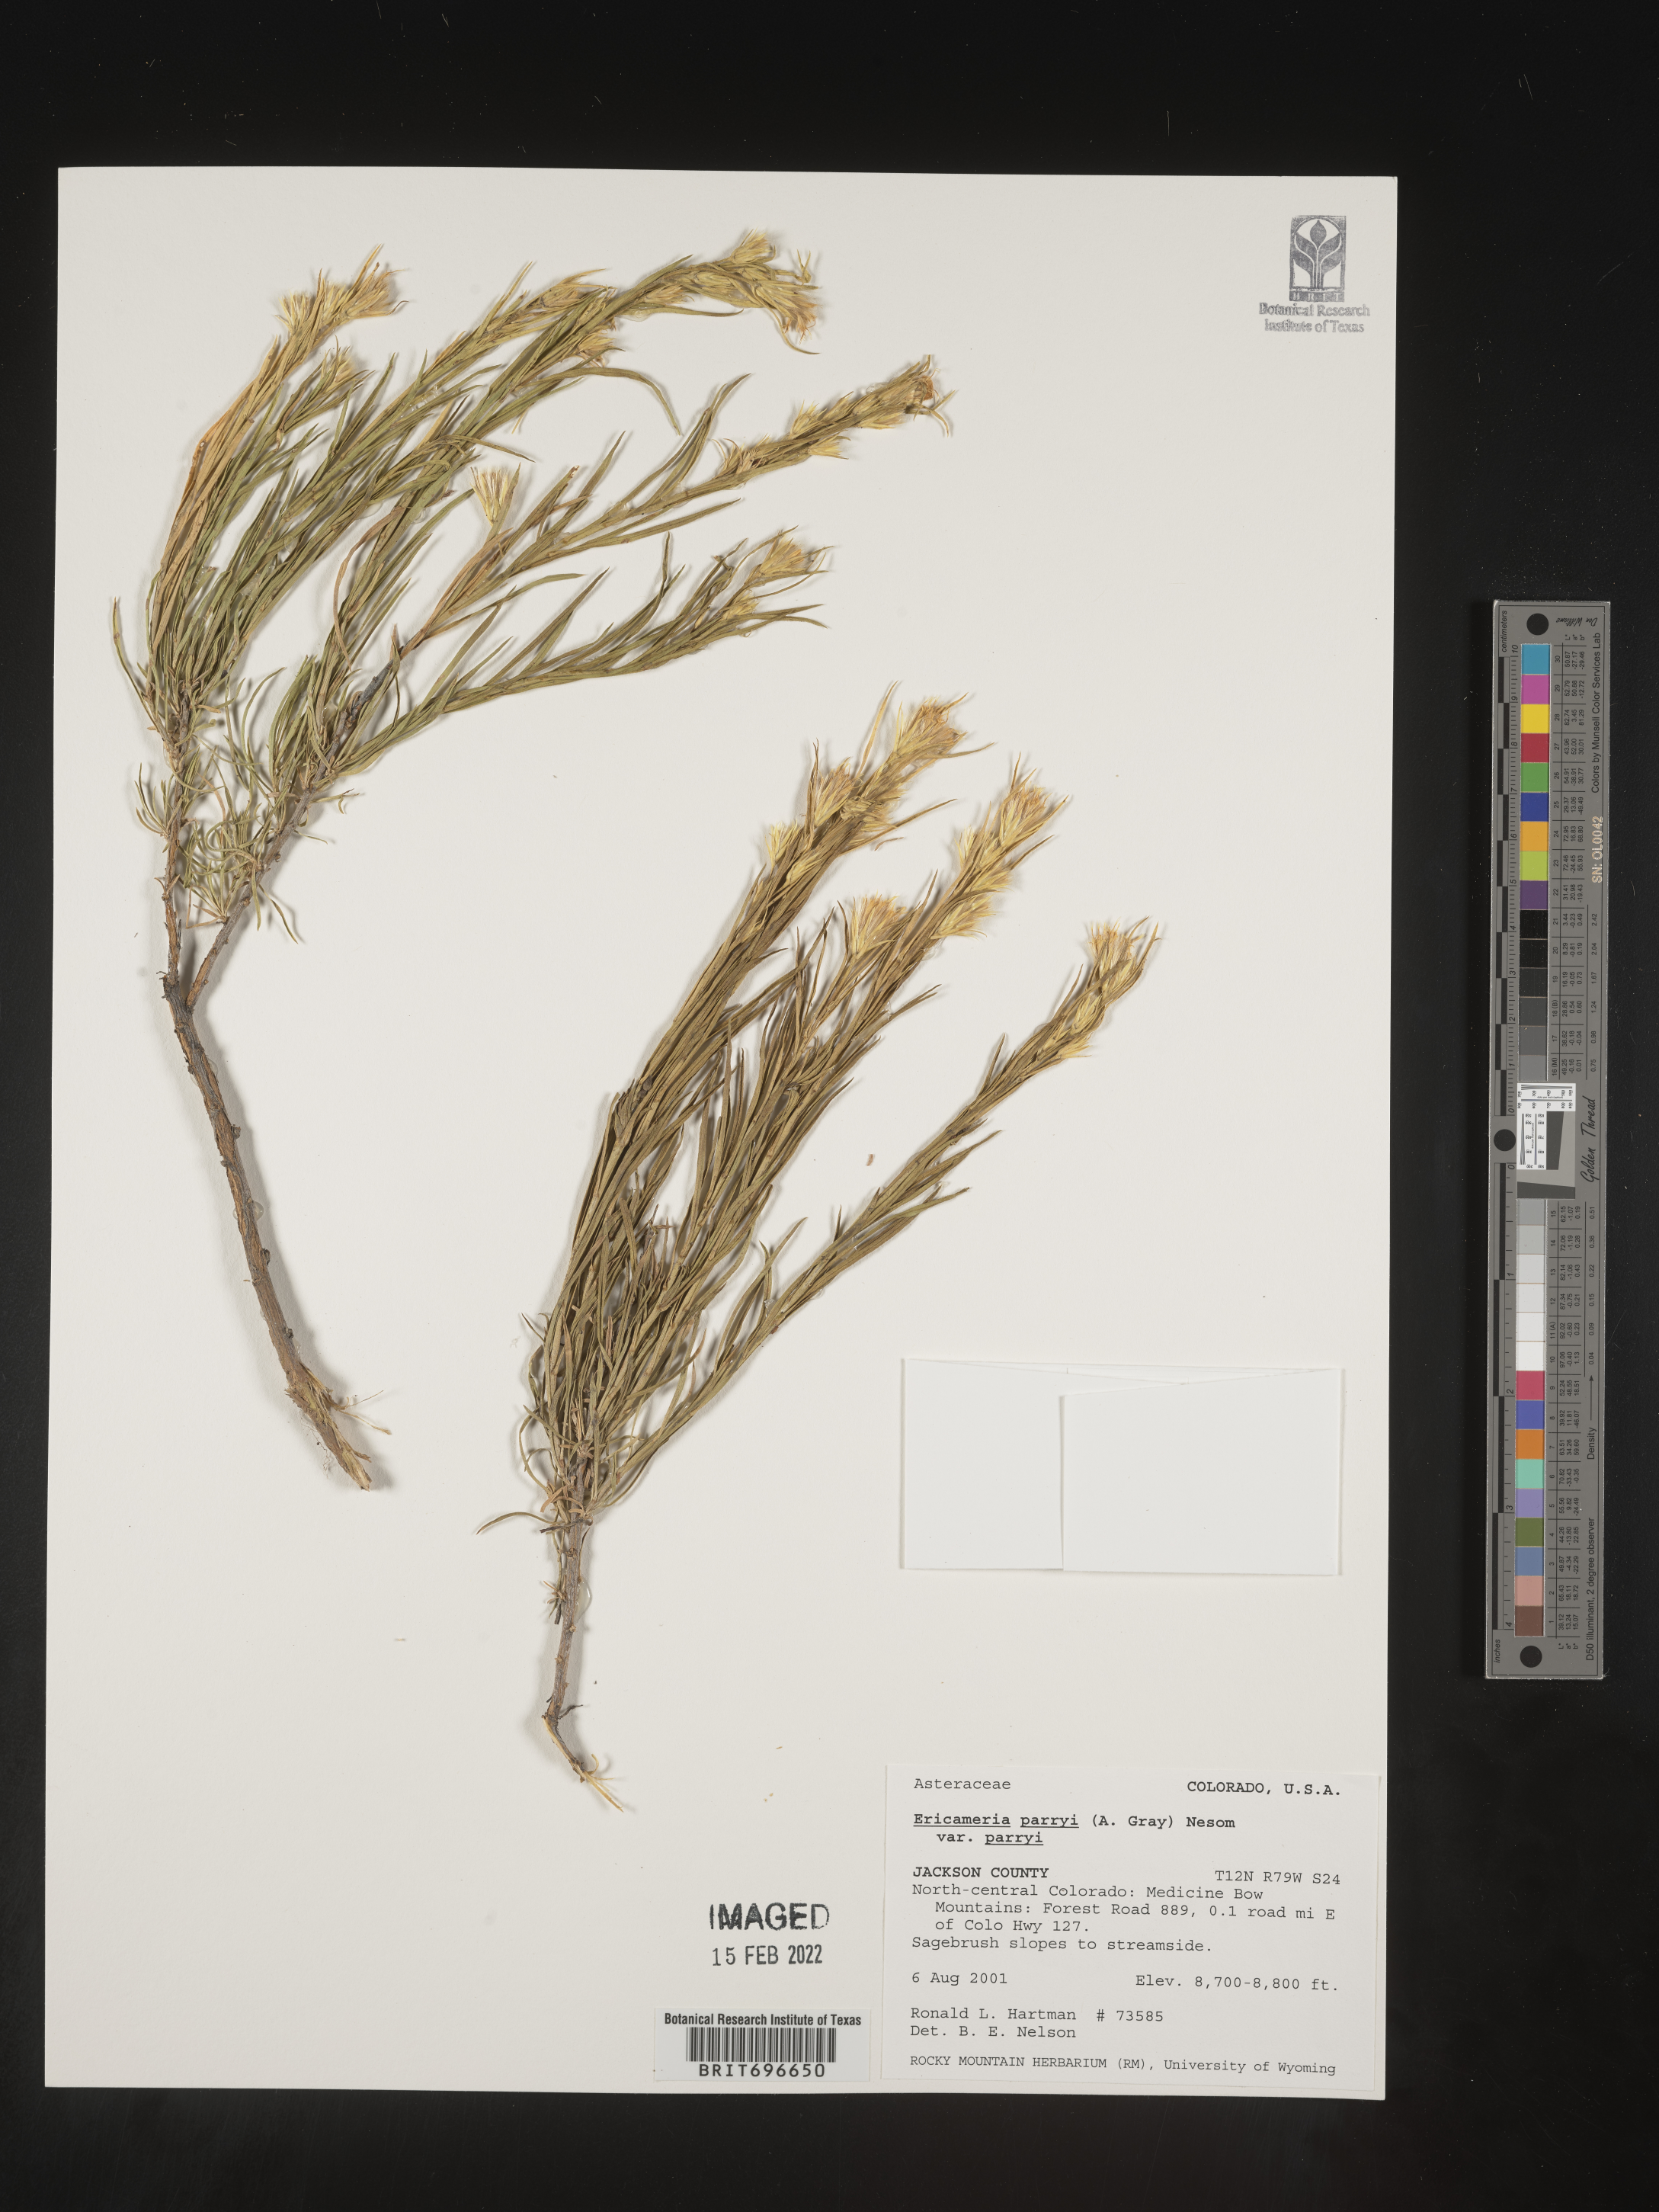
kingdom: Plantae
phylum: Tracheophyta
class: Magnoliopsida
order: Asterales
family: Asteraceae
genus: Ericameria
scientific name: Ericameria parryi
